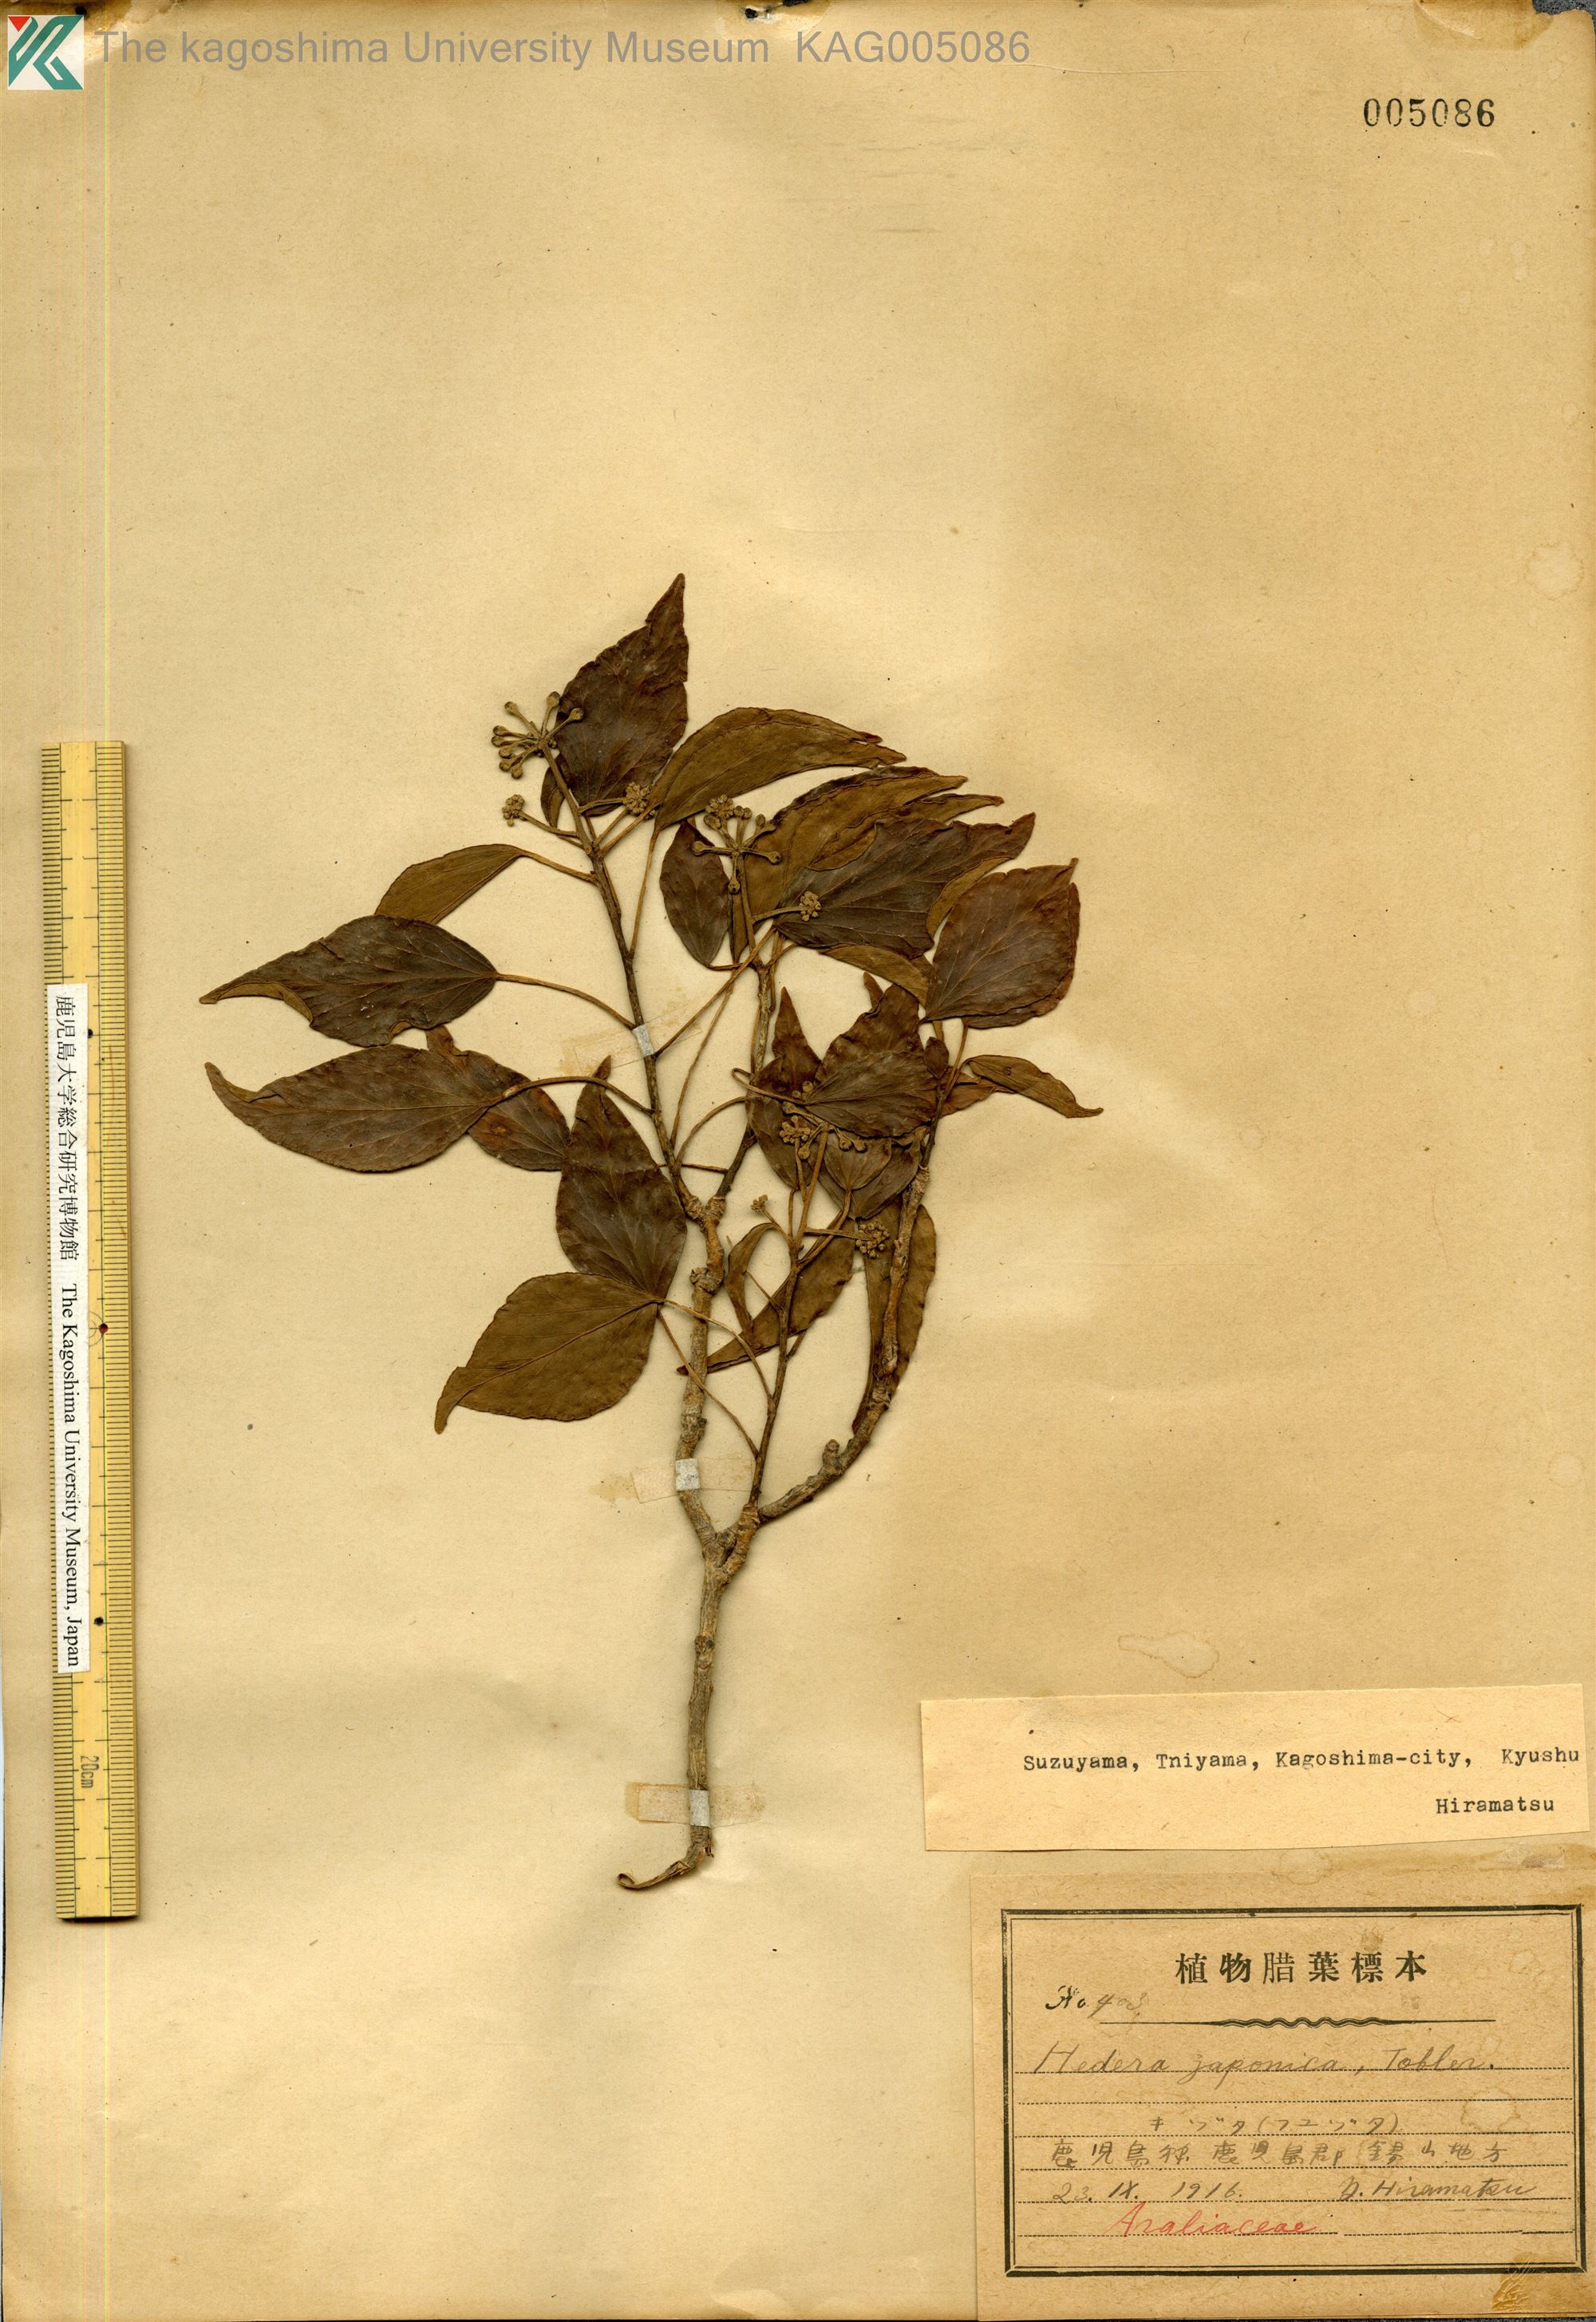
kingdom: Plantae
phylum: Tracheophyta
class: Magnoliopsida
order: Apiales
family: Araliaceae
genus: Hedera
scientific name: Hedera rhombea
